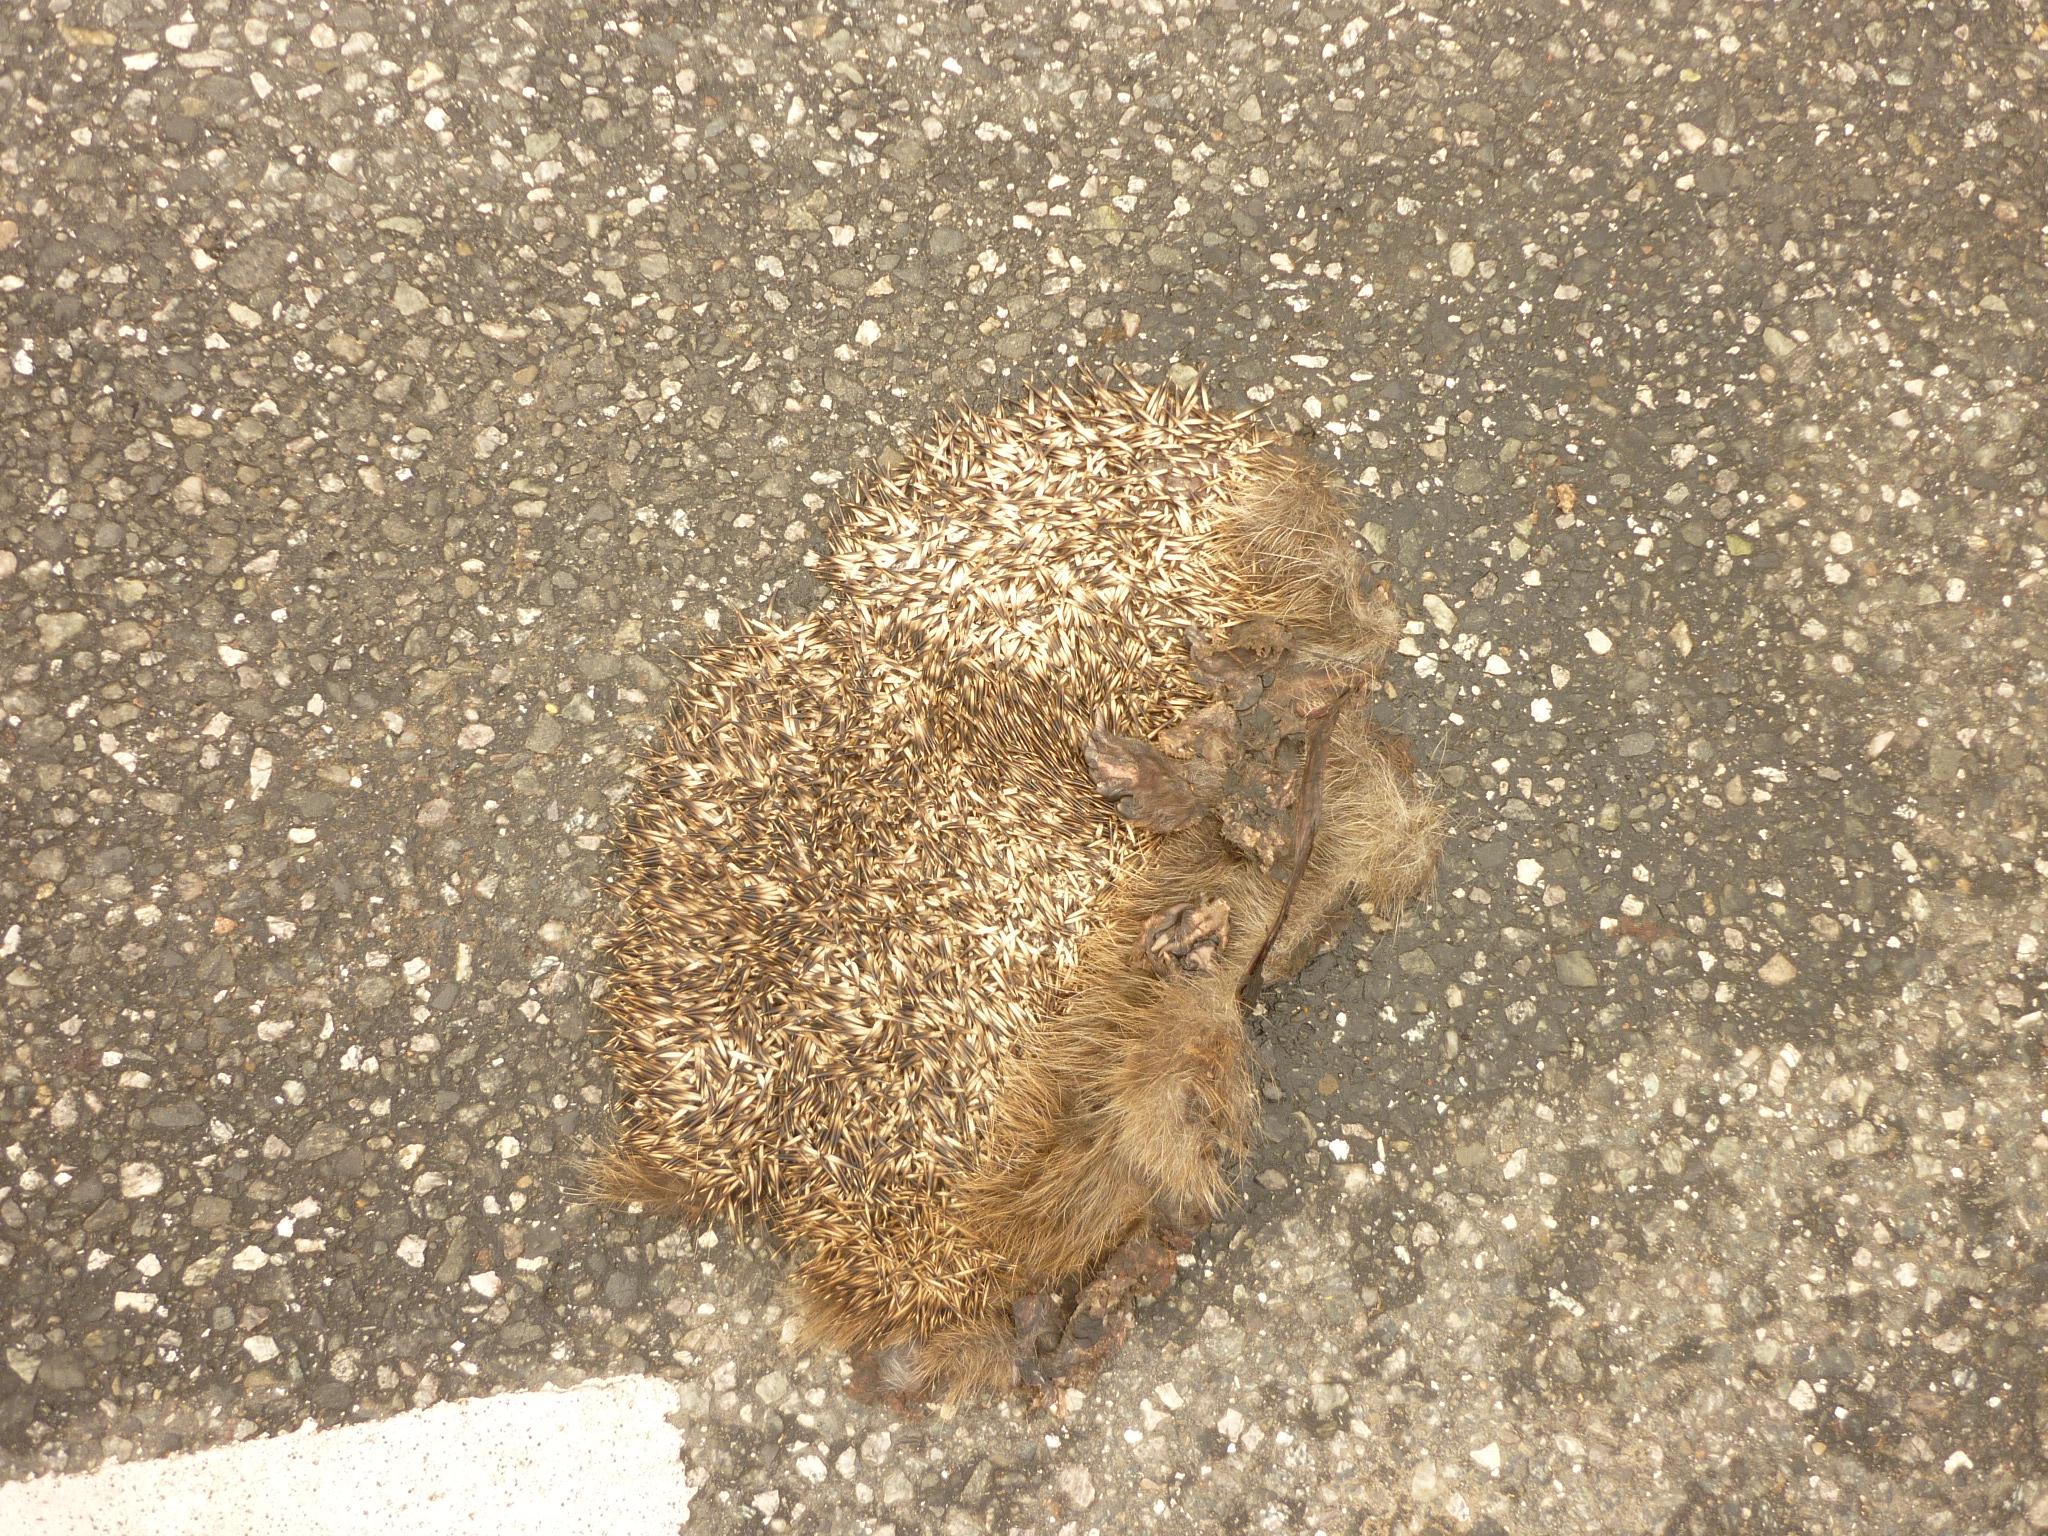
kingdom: Animalia
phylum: Chordata
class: Mammalia
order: Erinaceomorpha
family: Erinaceidae
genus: Erinaceus
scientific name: Erinaceus
